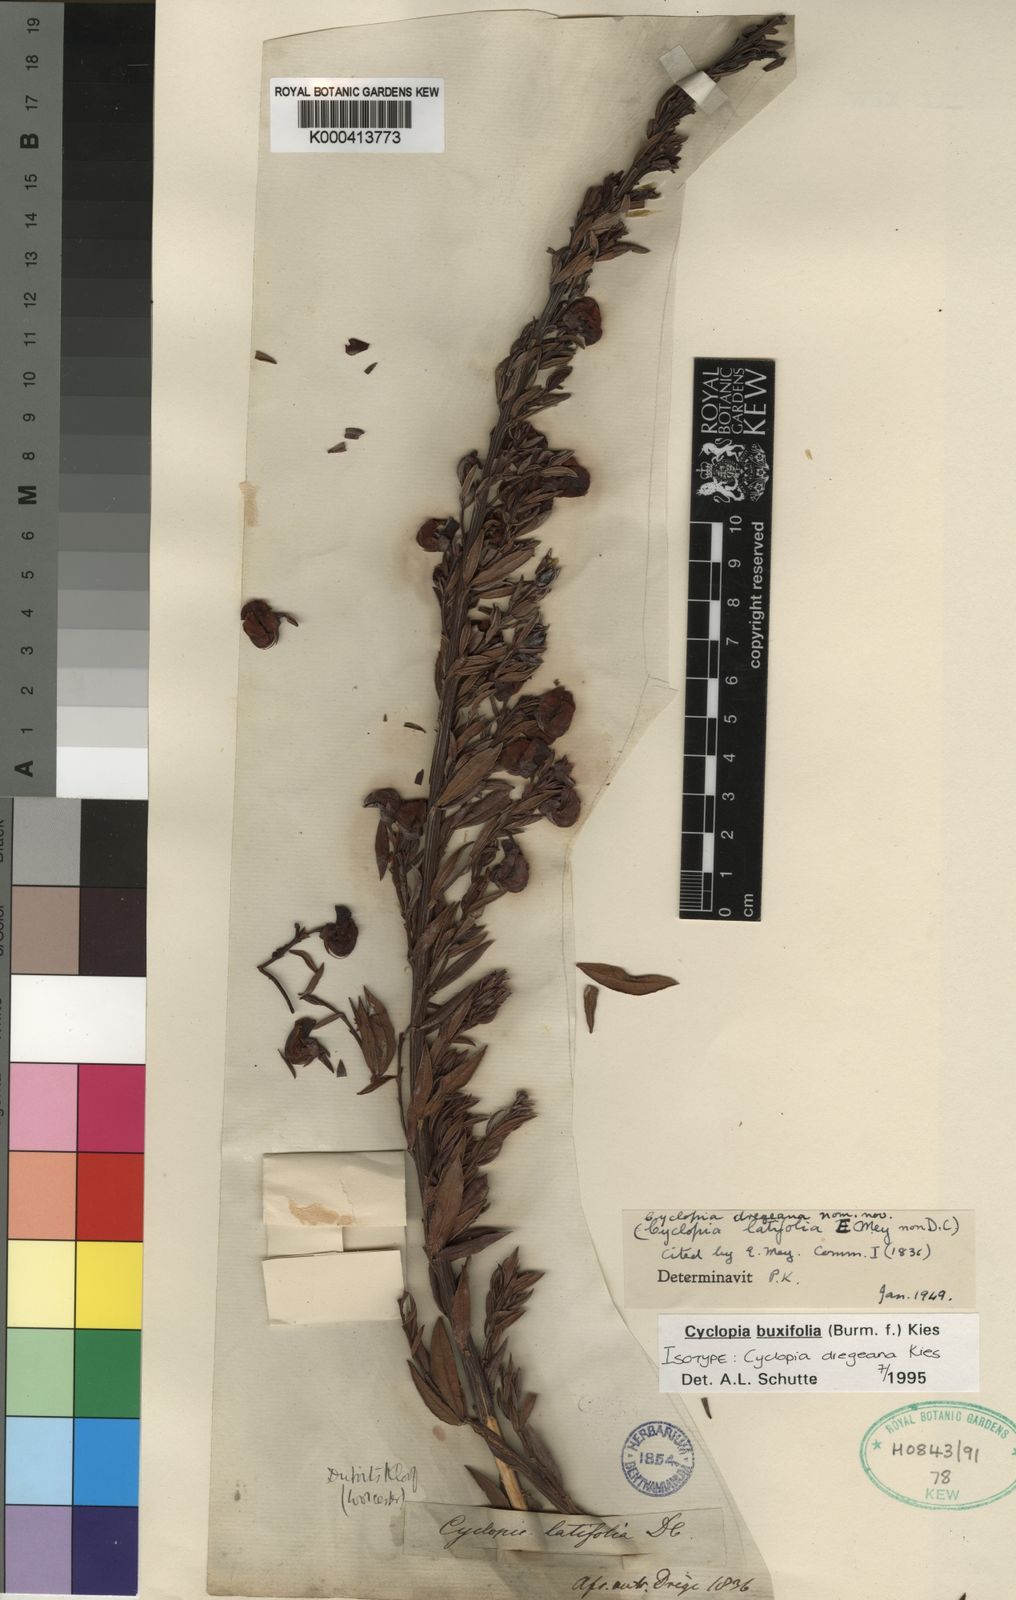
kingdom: Plantae
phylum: Tracheophyta
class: Magnoliopsida
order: Fabales
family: Fabaceae
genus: Cyclopia
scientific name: Cyclopia buxifolia
